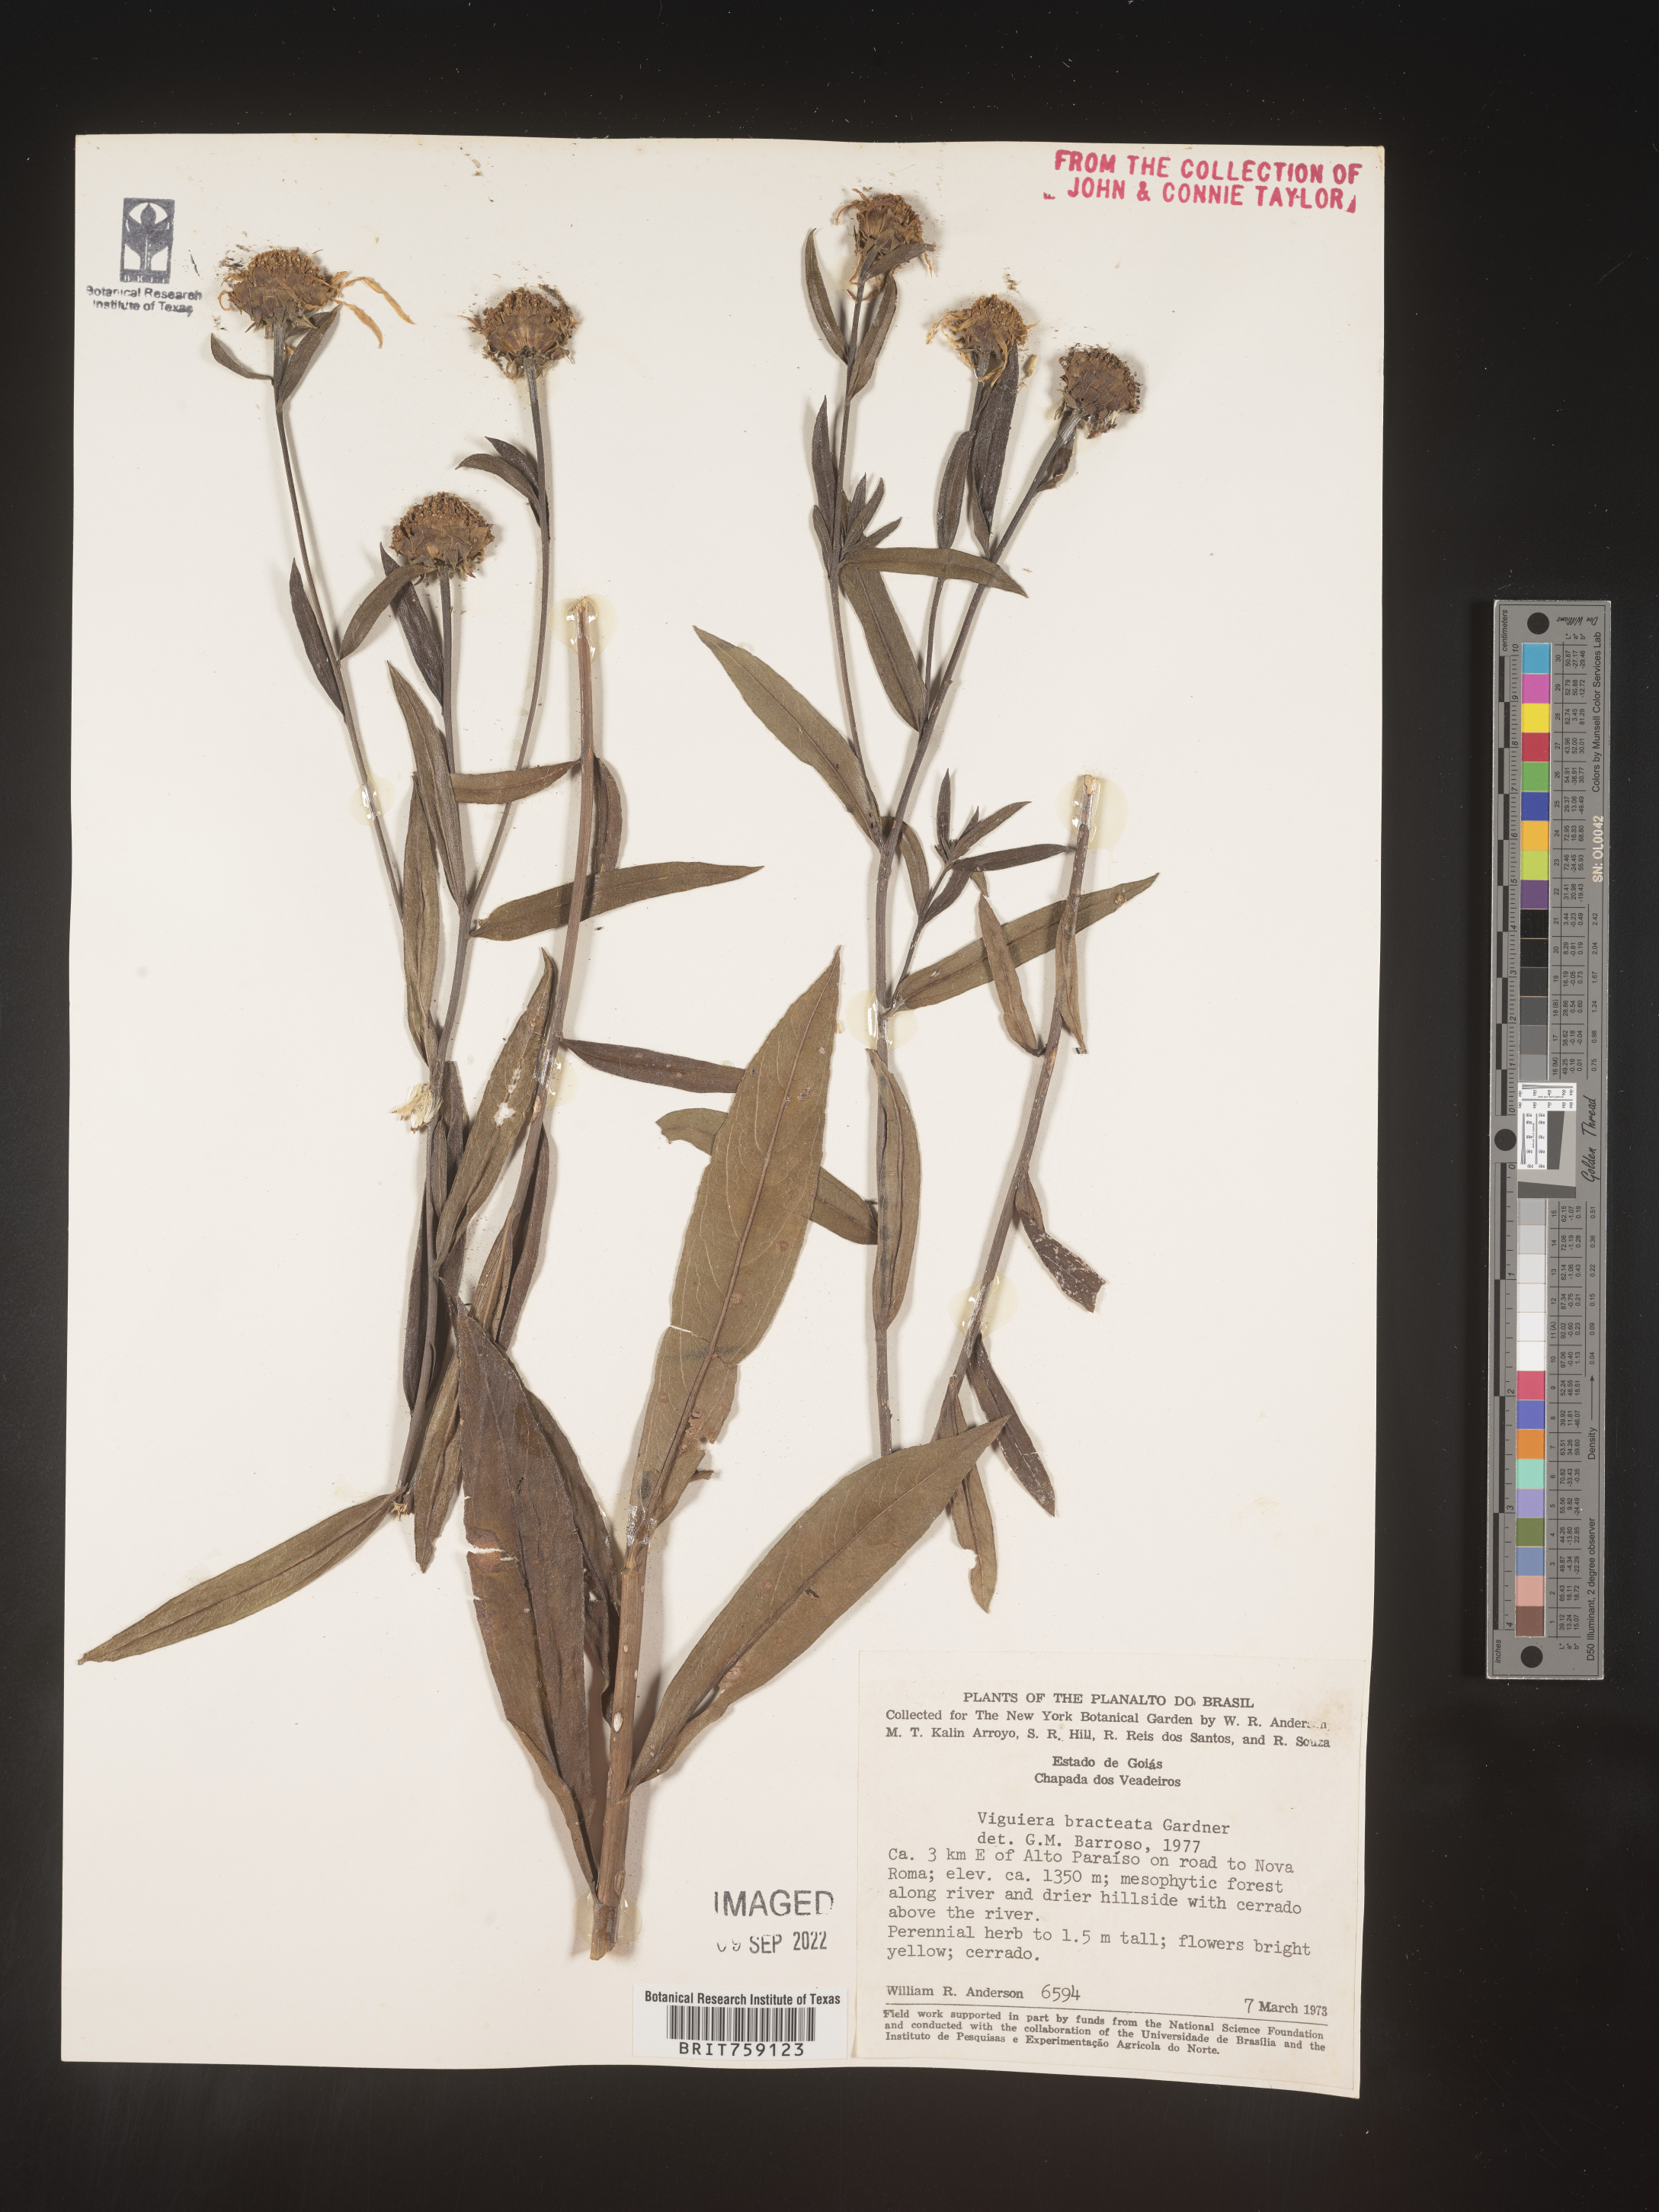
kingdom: Plantae
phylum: Tracheophyta
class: Magnoliopsida
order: Asterales
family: Asteraceae
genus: Viguiera
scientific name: Viguiera
